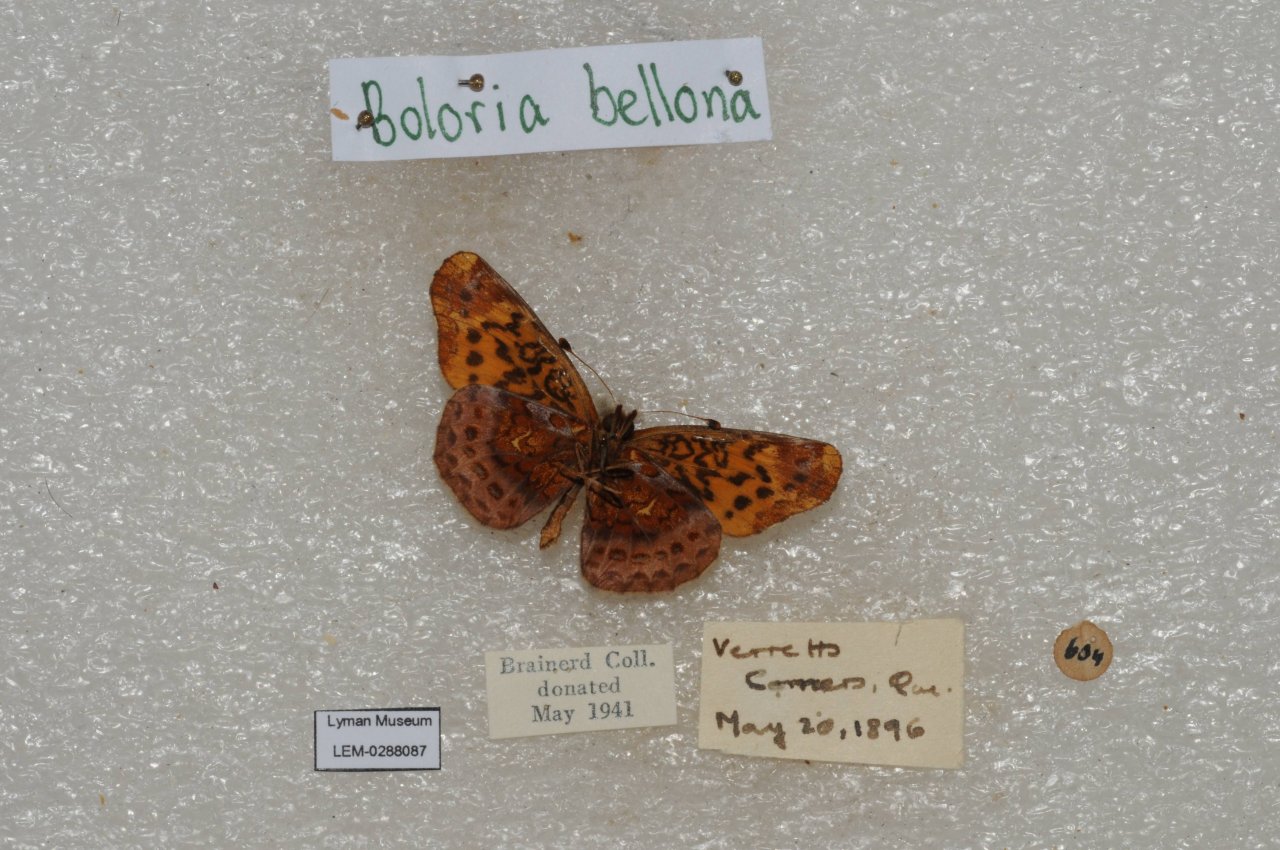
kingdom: Animalia
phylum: Arthropoda
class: Insecta
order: Lepidoptera
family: Nymphalidae
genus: Clossiana
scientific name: Clossiana toddi
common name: Meadow Fritillary
